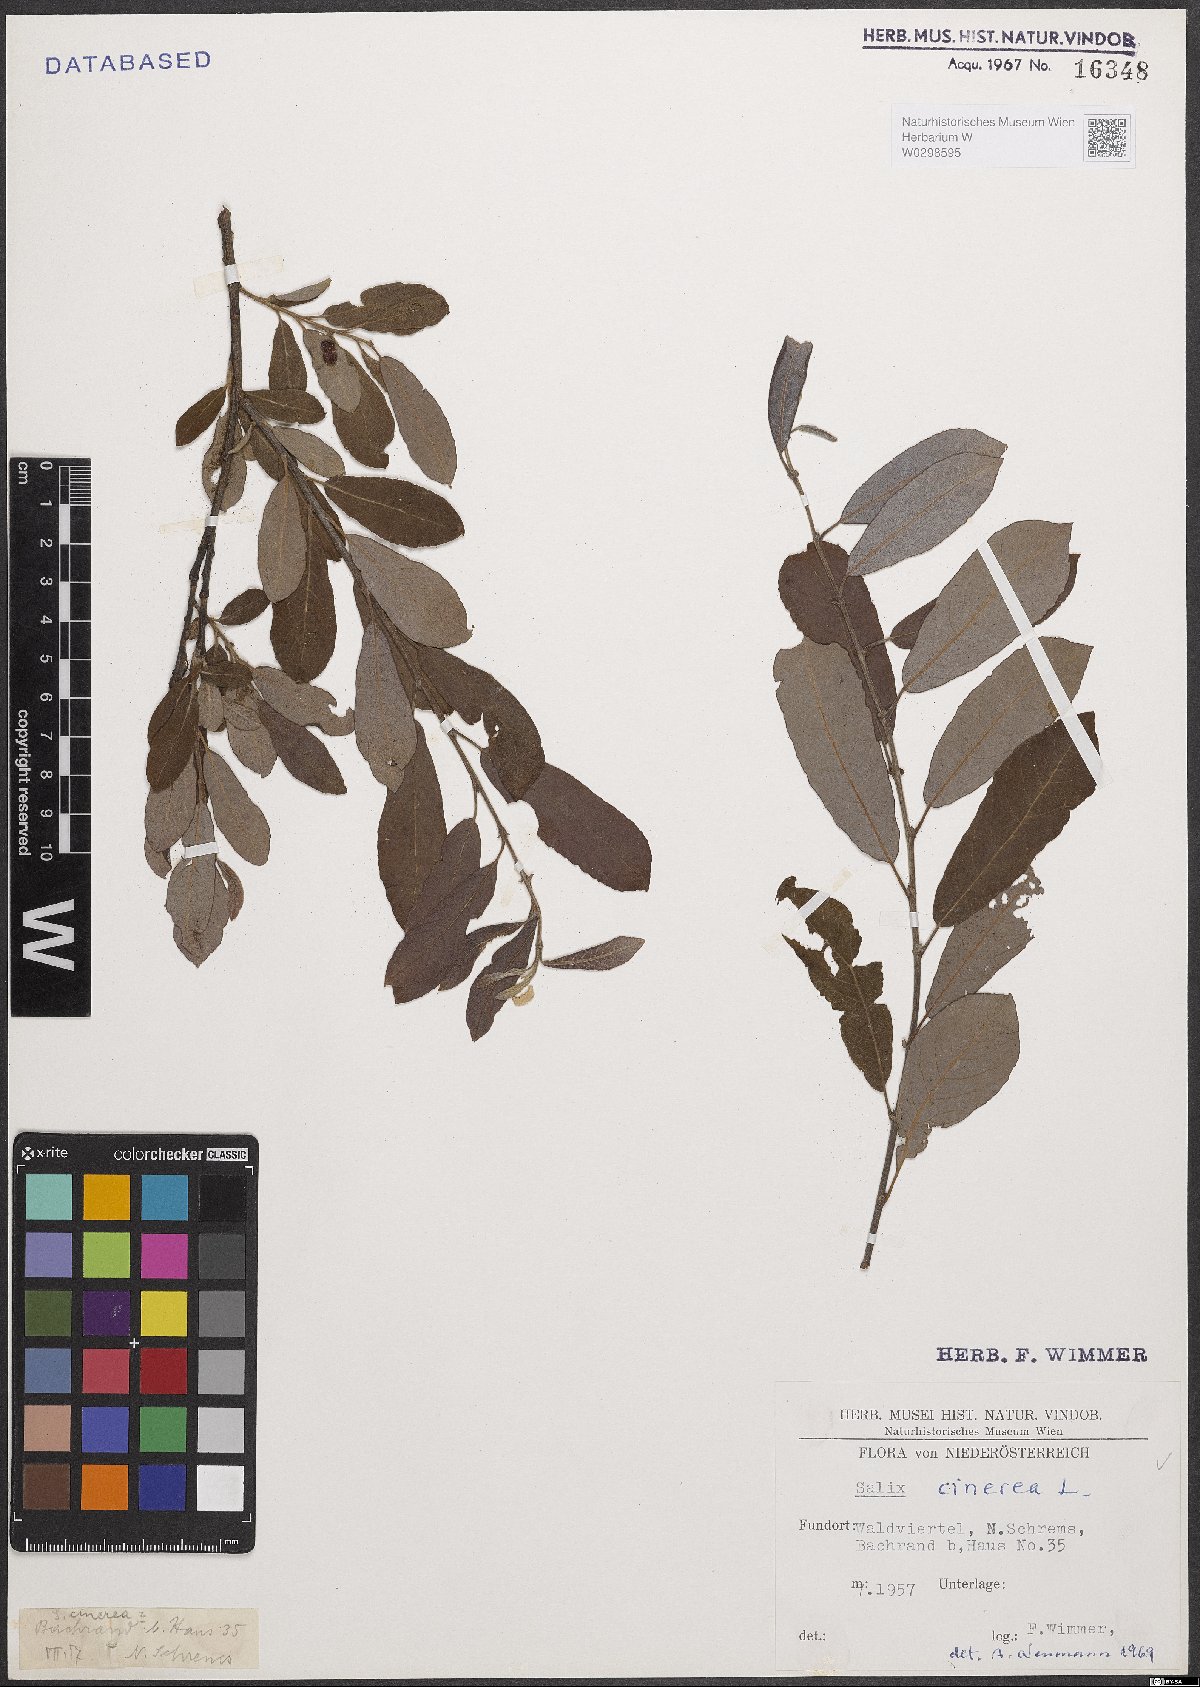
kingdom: Plantae
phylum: Tracheophyta
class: Magnoliopsida
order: Malpighiales
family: Salicaceae
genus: Salix
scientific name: Salix cinerea
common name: Common sallow
